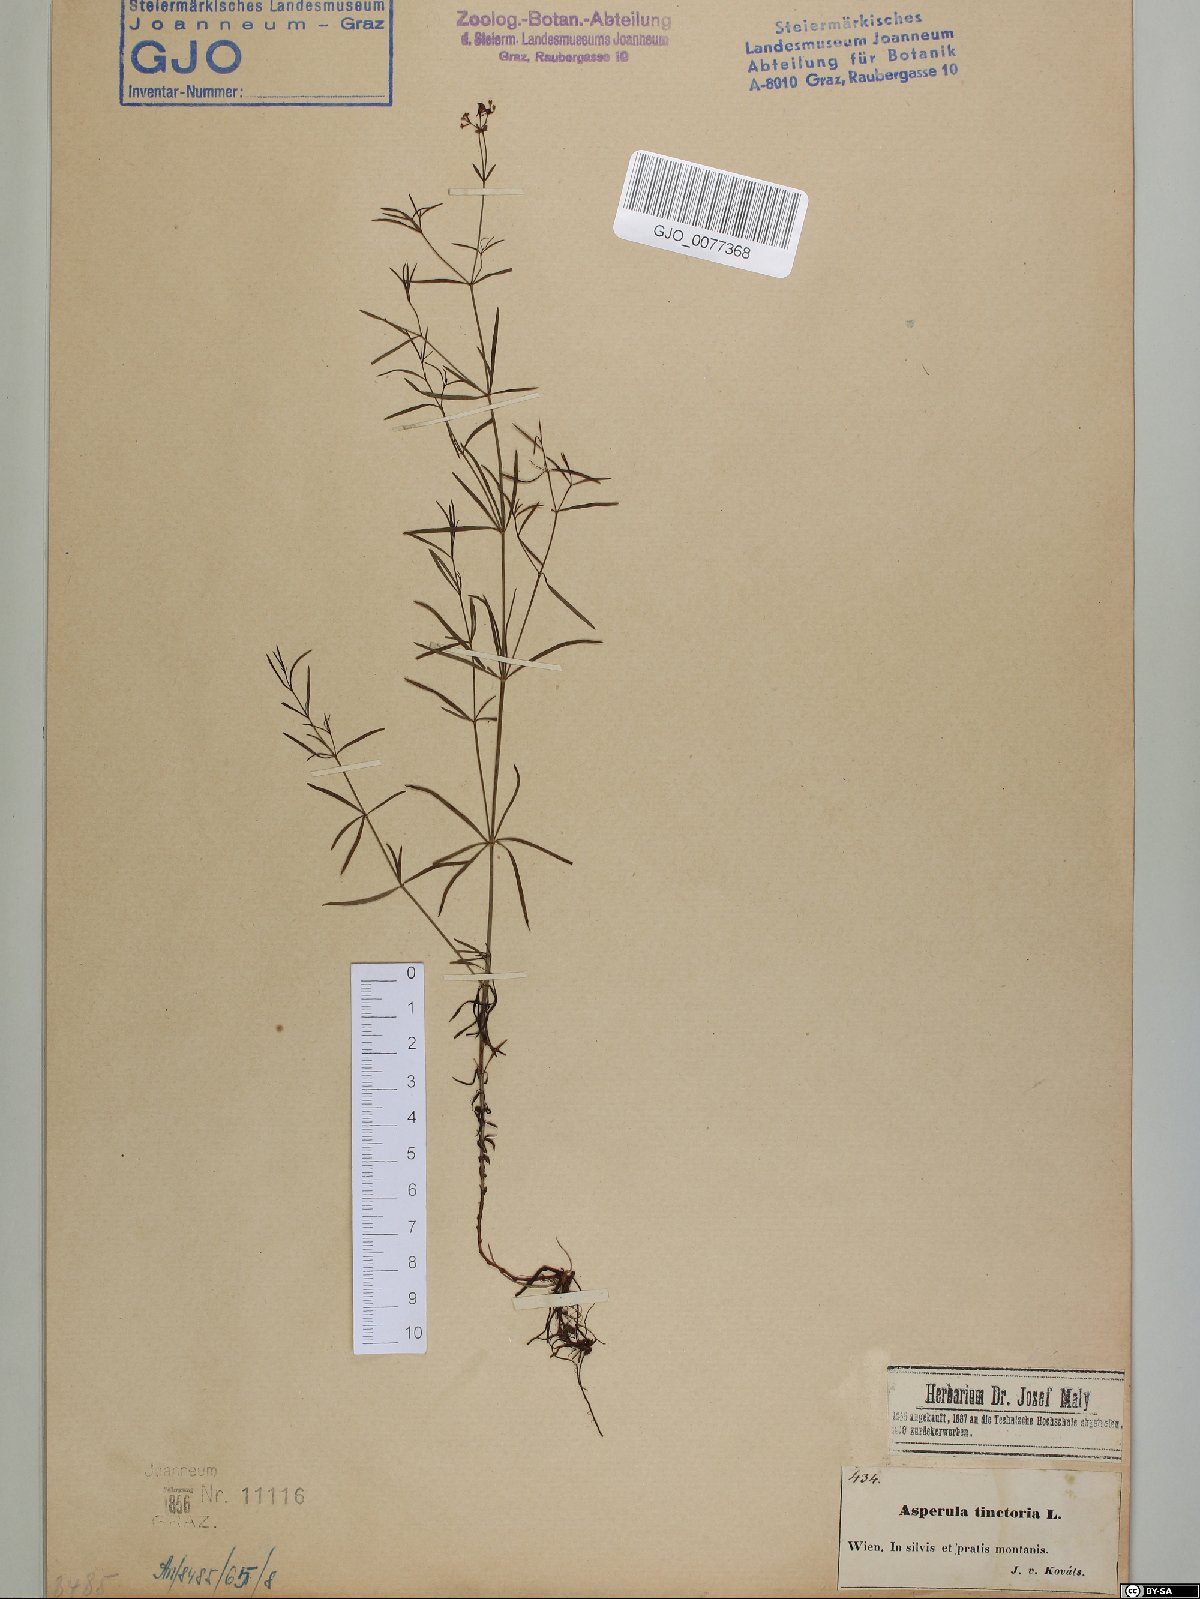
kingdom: Plantae
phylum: Tracheophyta
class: Magnoliopsida
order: Gentianales
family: Rubiaceae
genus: Asperula
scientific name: Asperula tinctoria
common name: Dyer's woodruff
